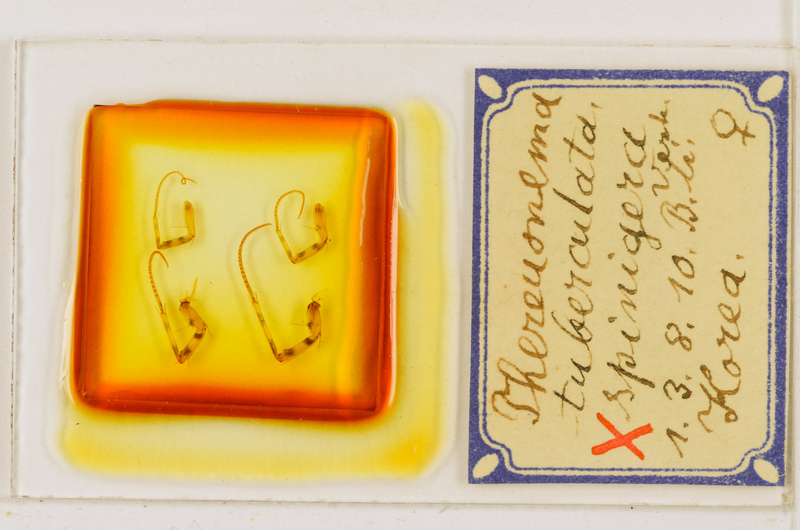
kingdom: Animalia
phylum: Arthropoda
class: Chilopoda
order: Scutigeromorpha
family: Scutigeridae
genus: Thereuonema
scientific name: Thereuonema tuberculata
